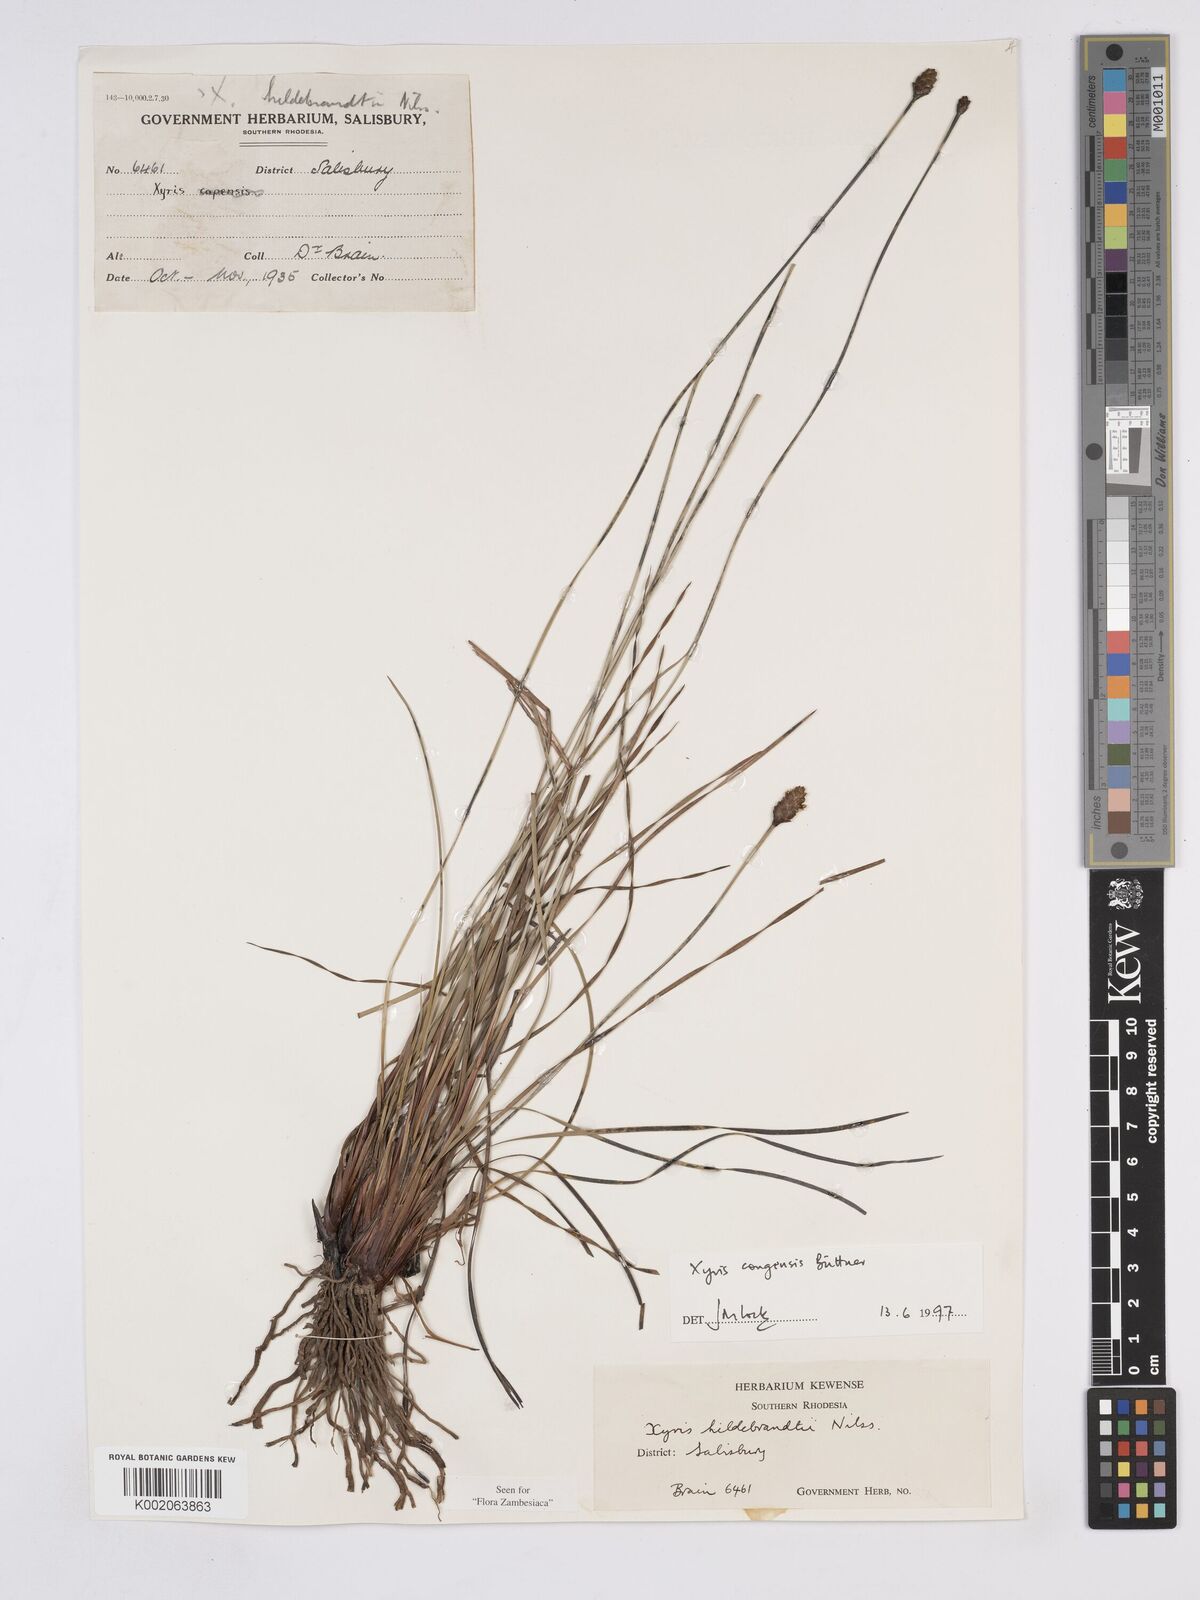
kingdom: Plantae
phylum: Tracheophyta
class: Liliopsida
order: Poales
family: Xyridaceae
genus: Xyris
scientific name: Xyris congensis
